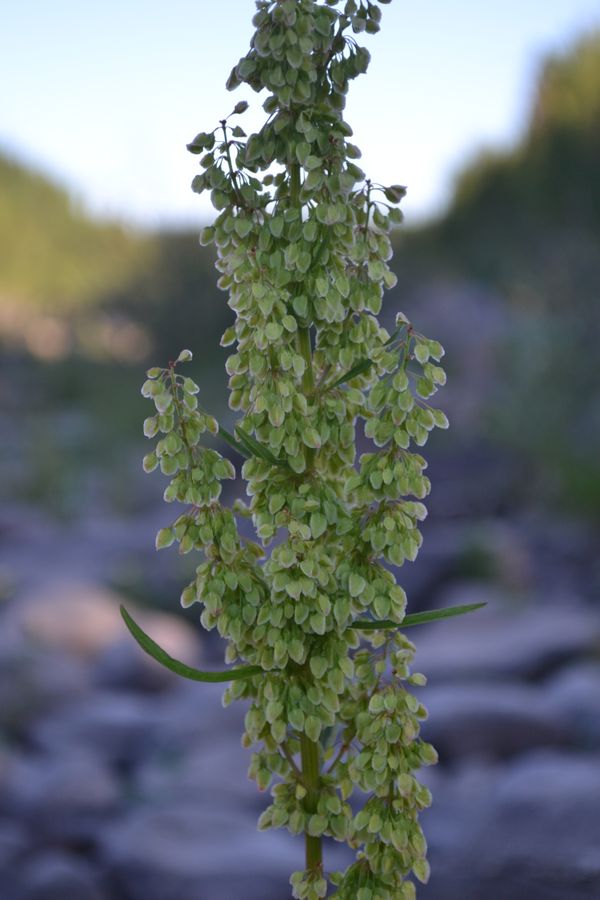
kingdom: Plantae
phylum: Tracheophyta
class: Magnoliopsida
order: Caryophyllales
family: Polygonaceae
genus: Rumex
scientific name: Rumex aquaticus
